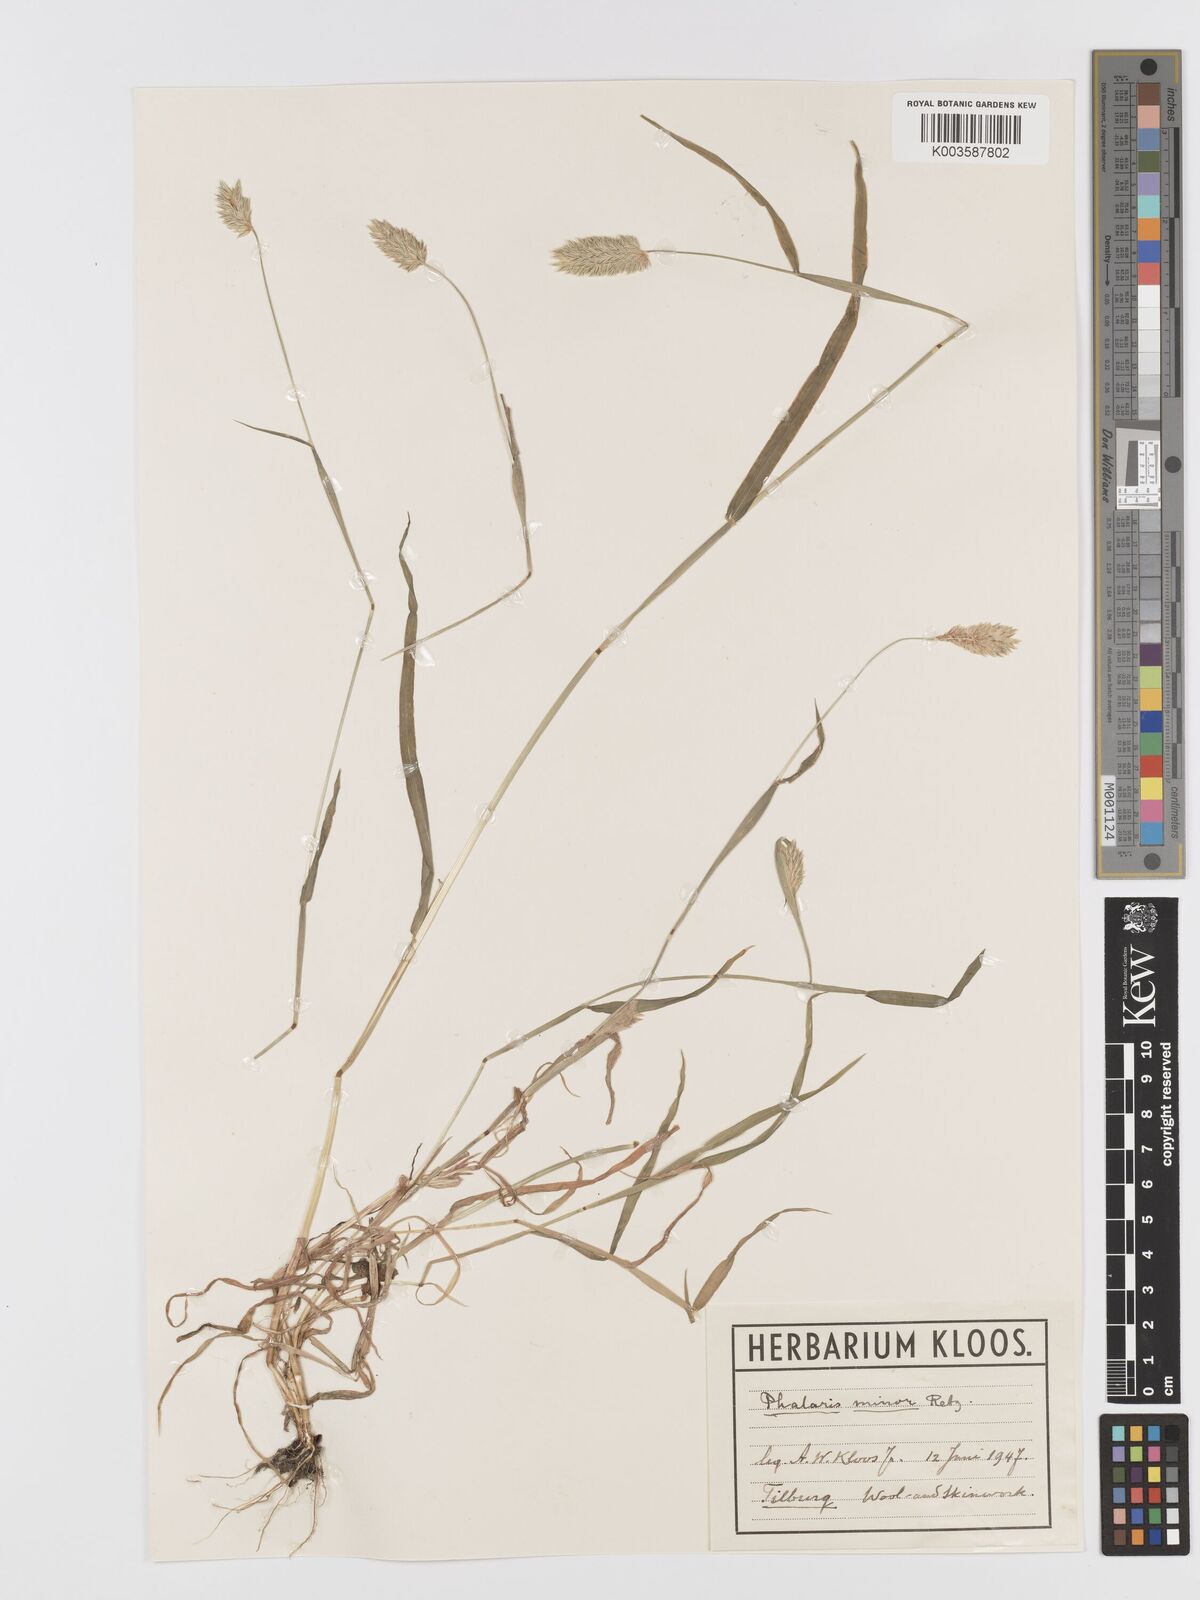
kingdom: Plantae
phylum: Tracheophyta
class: Liliopsida
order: Poales
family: Poaceae
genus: Phalaris
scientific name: Phalaris minor
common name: Littleseed canarygrass
